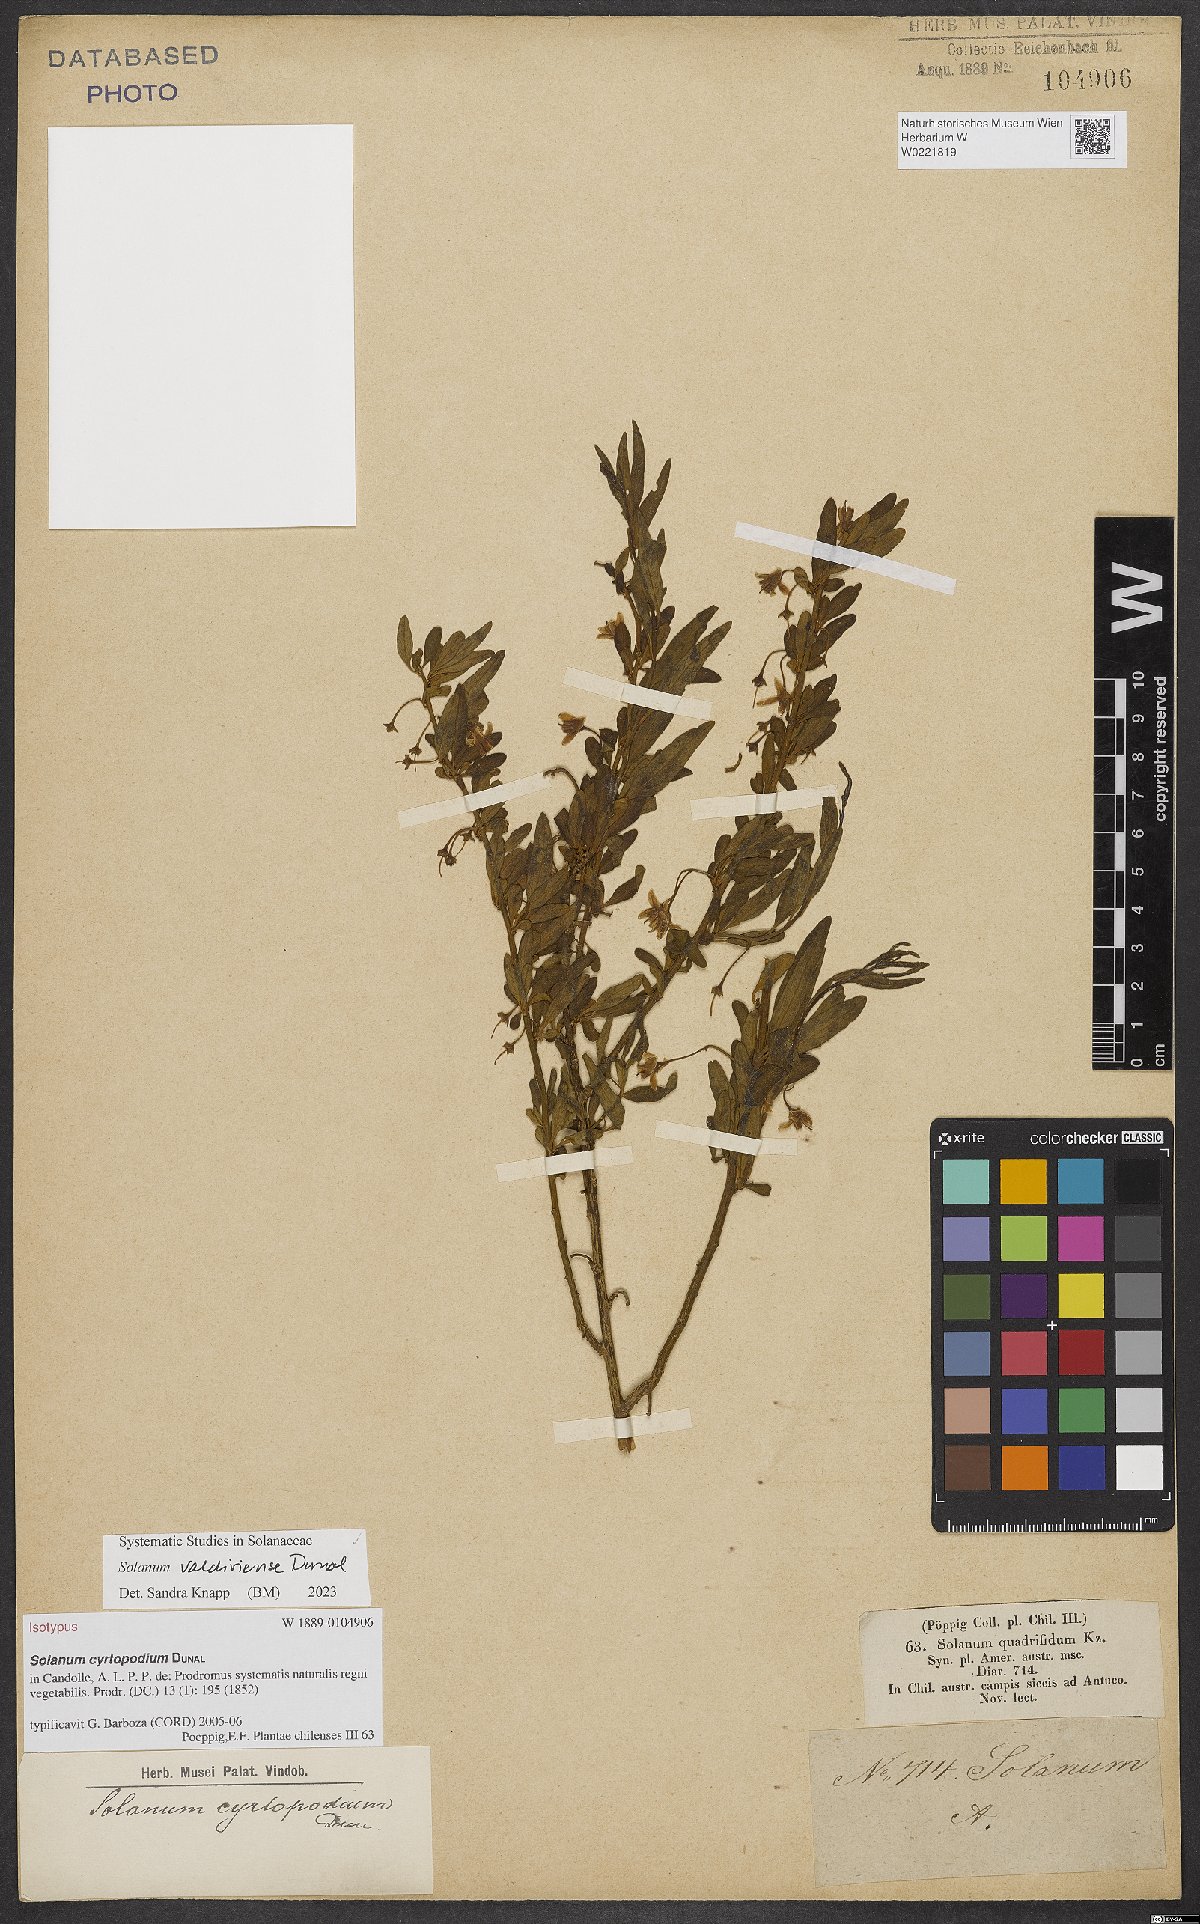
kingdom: Plantae
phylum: Tracheophyta
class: Magnoliopsida
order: Solanales
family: Solanaceae
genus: Solanum
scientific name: Solanum valdiviense
